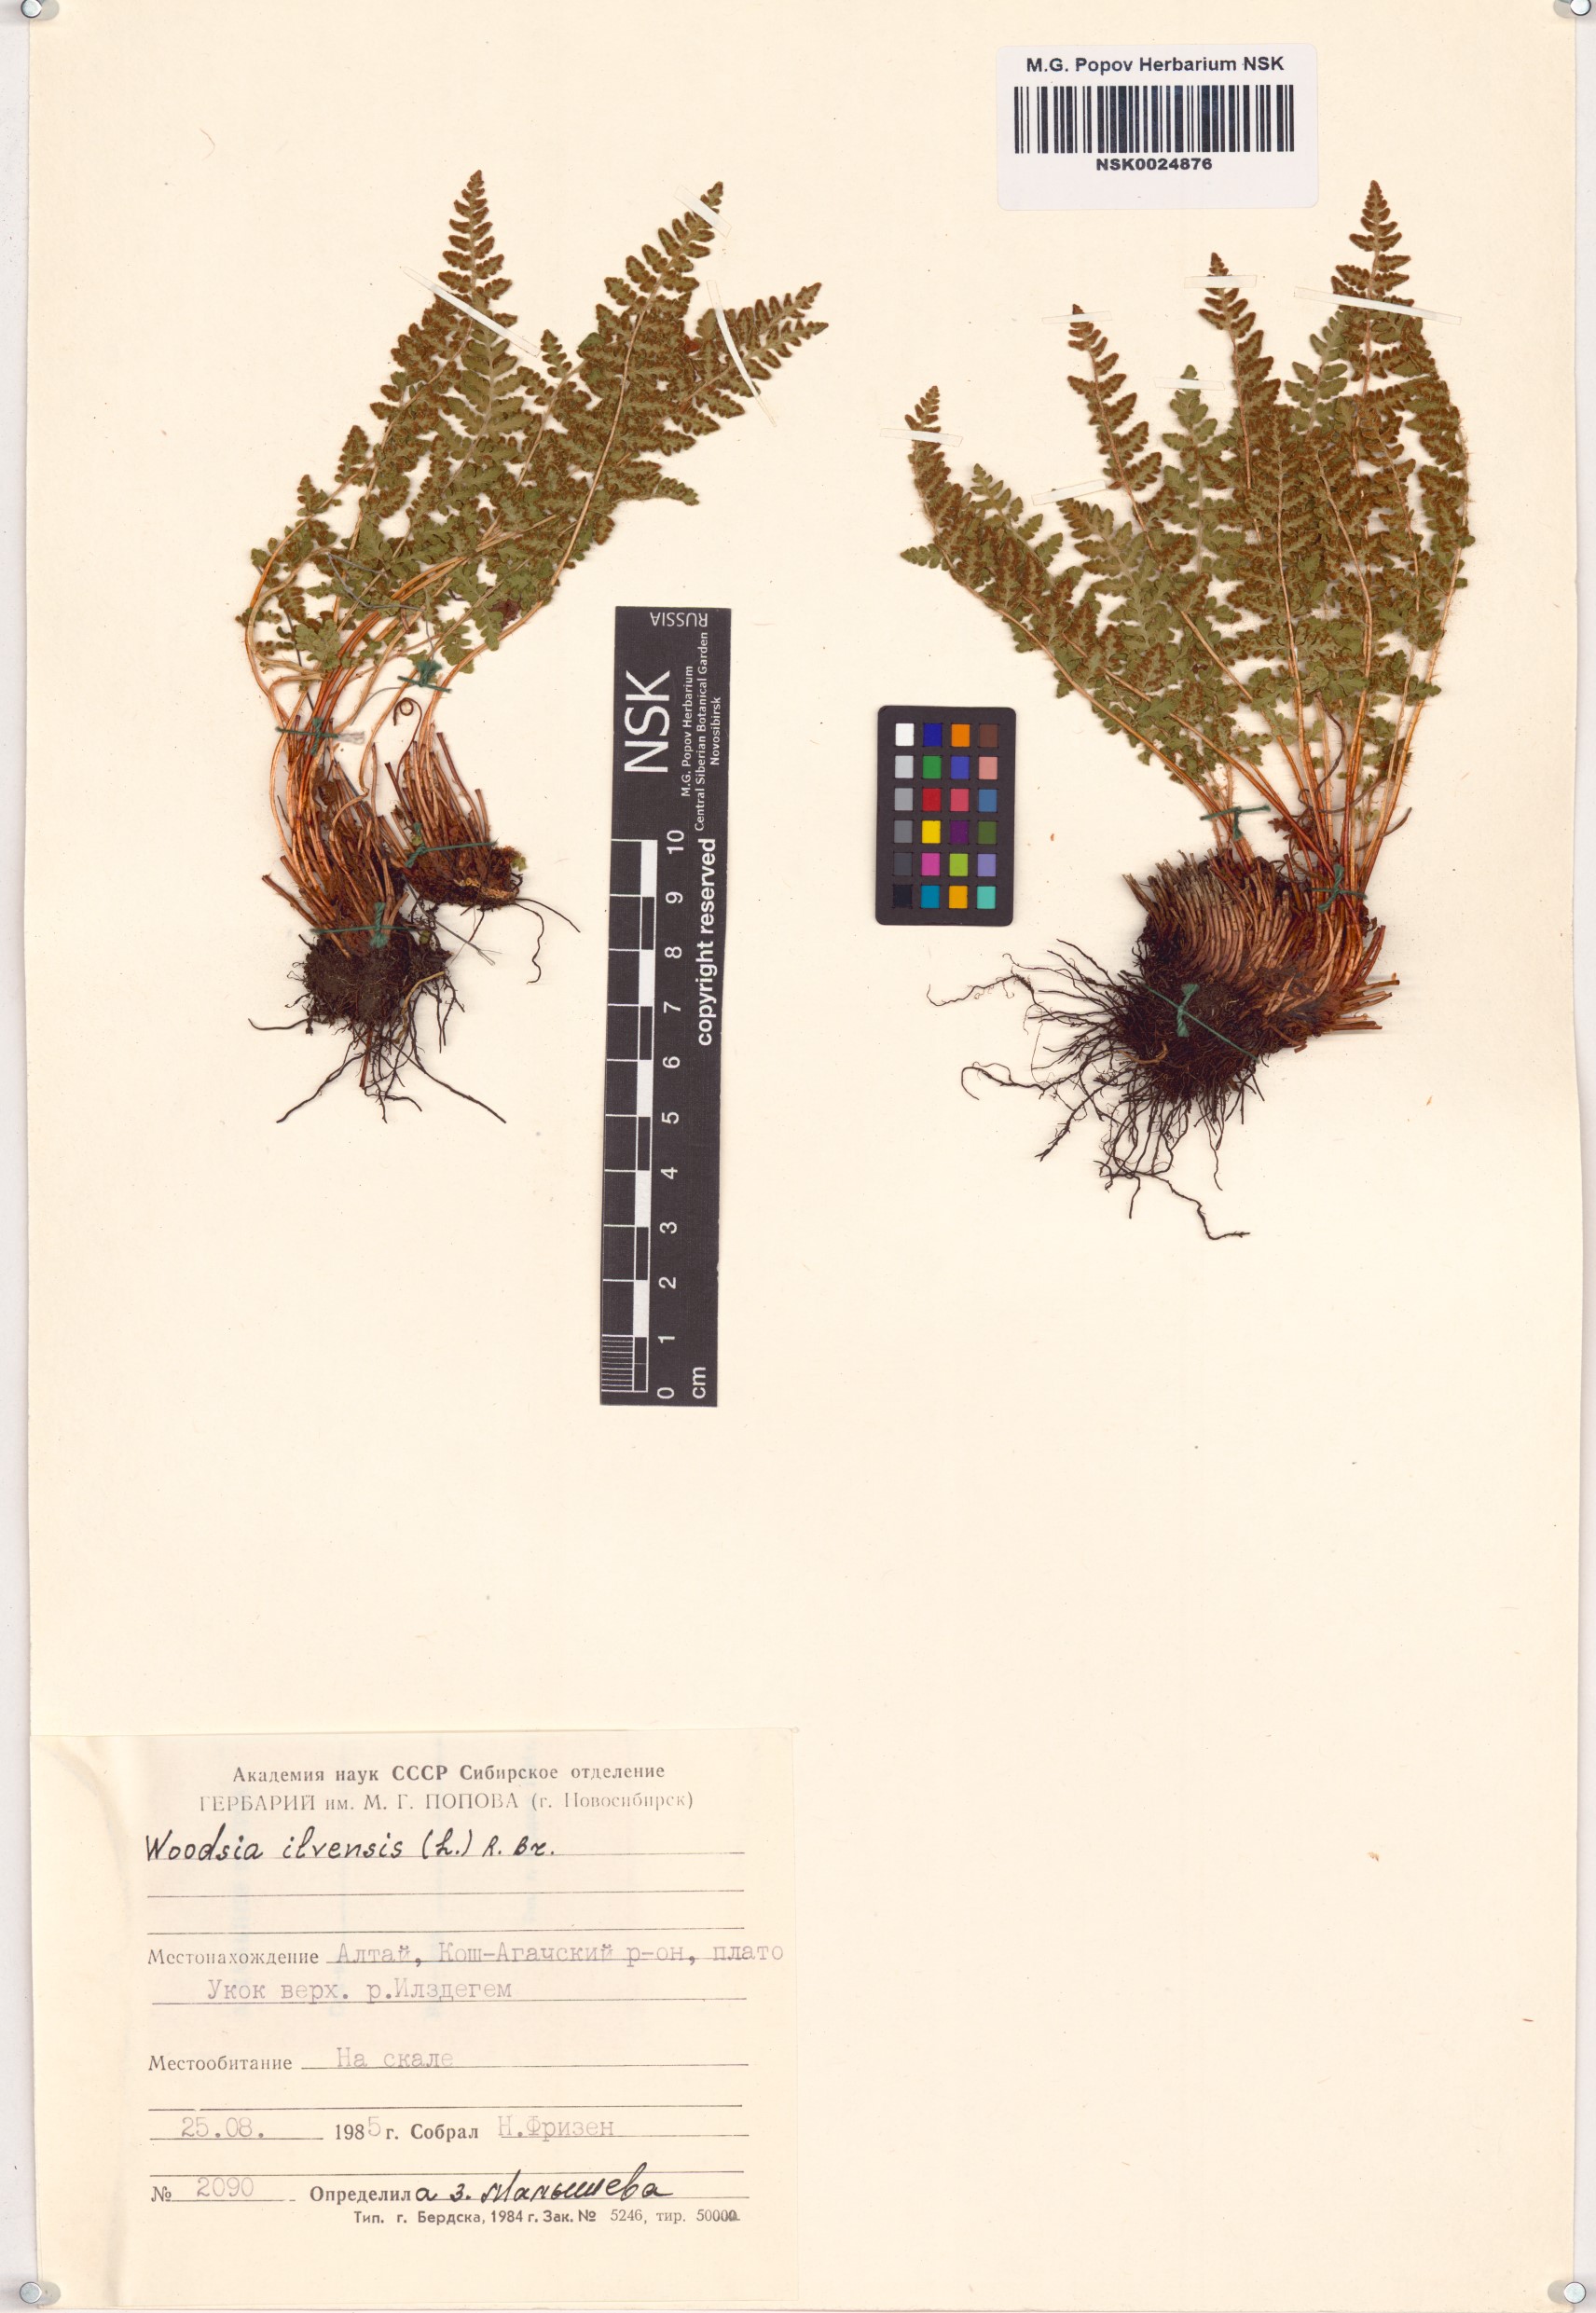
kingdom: Plantae
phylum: Tracheophyta
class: Polypodiopsida
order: Polypodiales
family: Woodsiaceae
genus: Woodsia
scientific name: Woodsia ilvensis
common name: Fragrant woodsia
